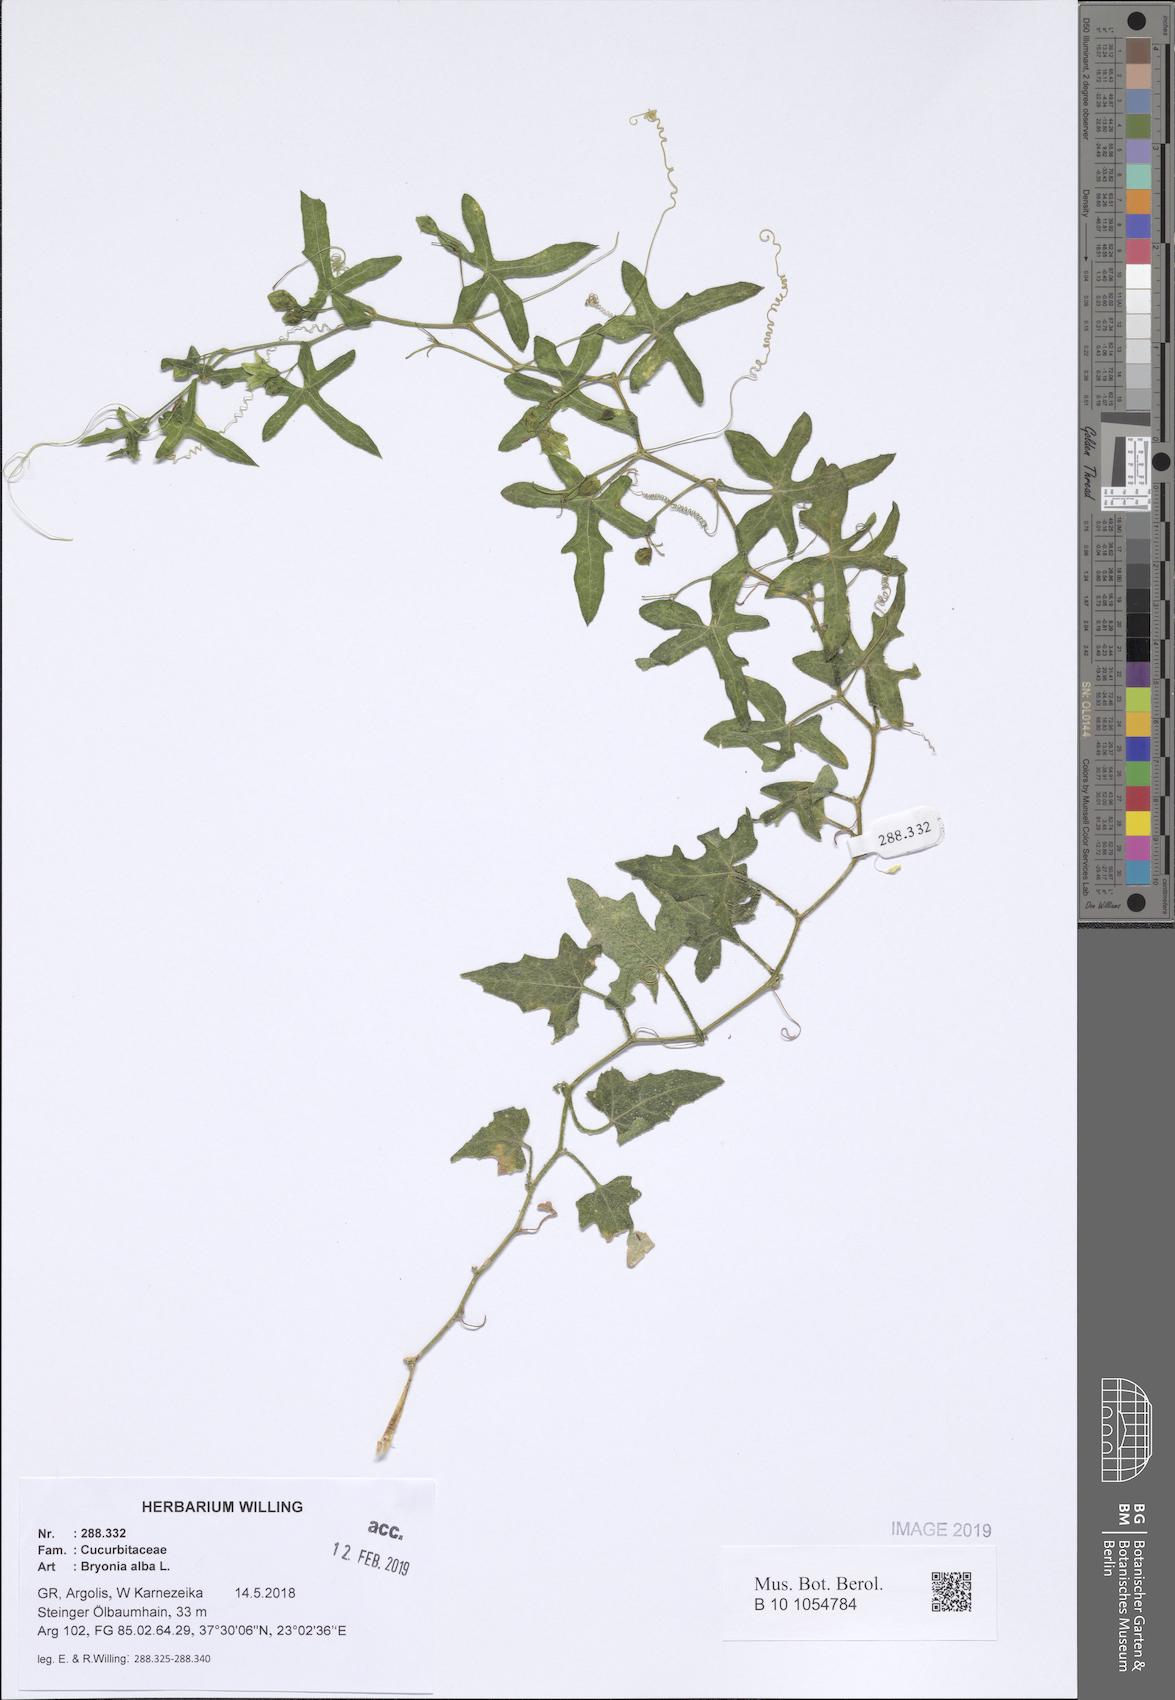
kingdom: Plantae
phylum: Tracheophyta
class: Magnoliopsida
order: Cucurbitales
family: Cucurbitaceae
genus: Bryonia
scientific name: Bryonia alba
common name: White bryony
